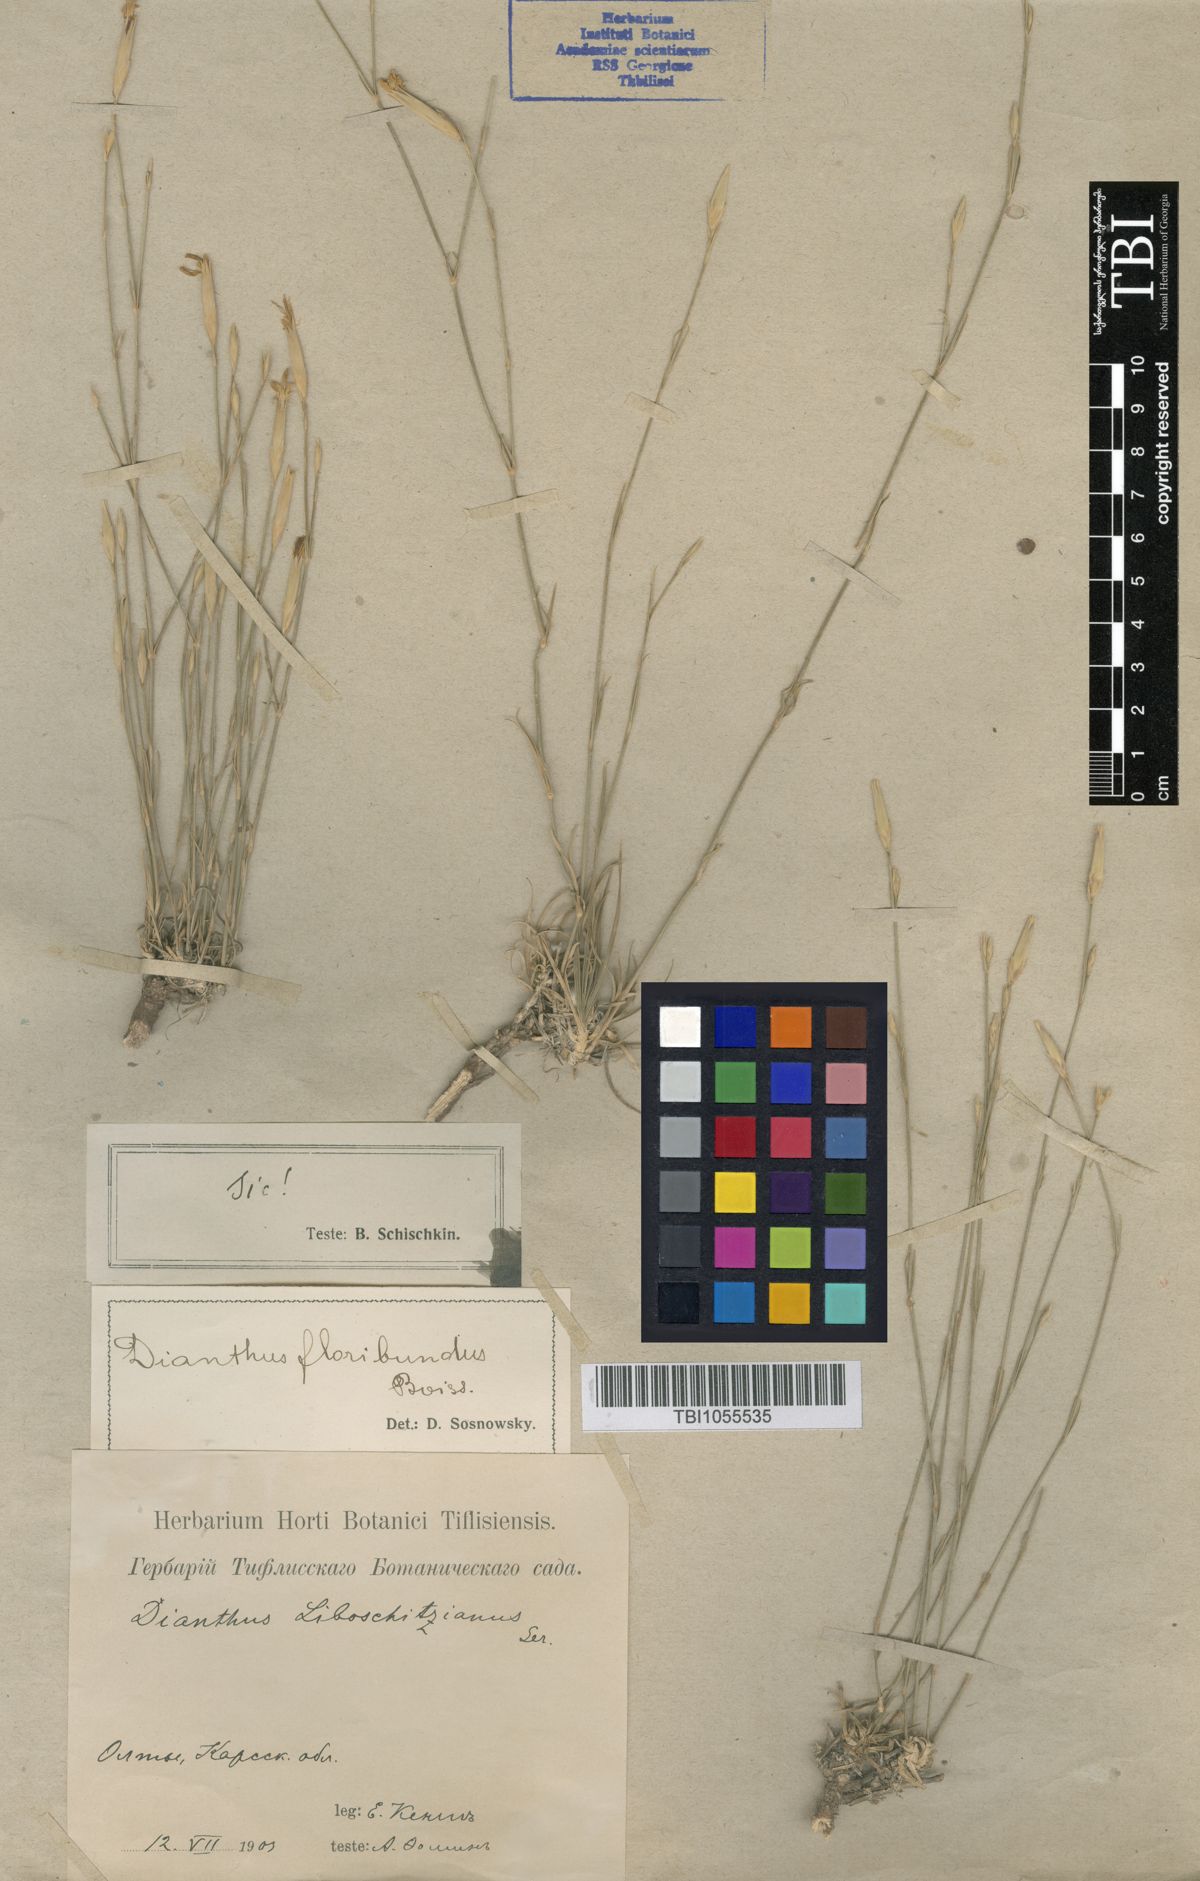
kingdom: Plantae
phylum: Tracheophyta
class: Magnoliopsida
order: Caryophyllales
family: Caryophyllaceae
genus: Dianthus
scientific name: Dianthus floribundus
